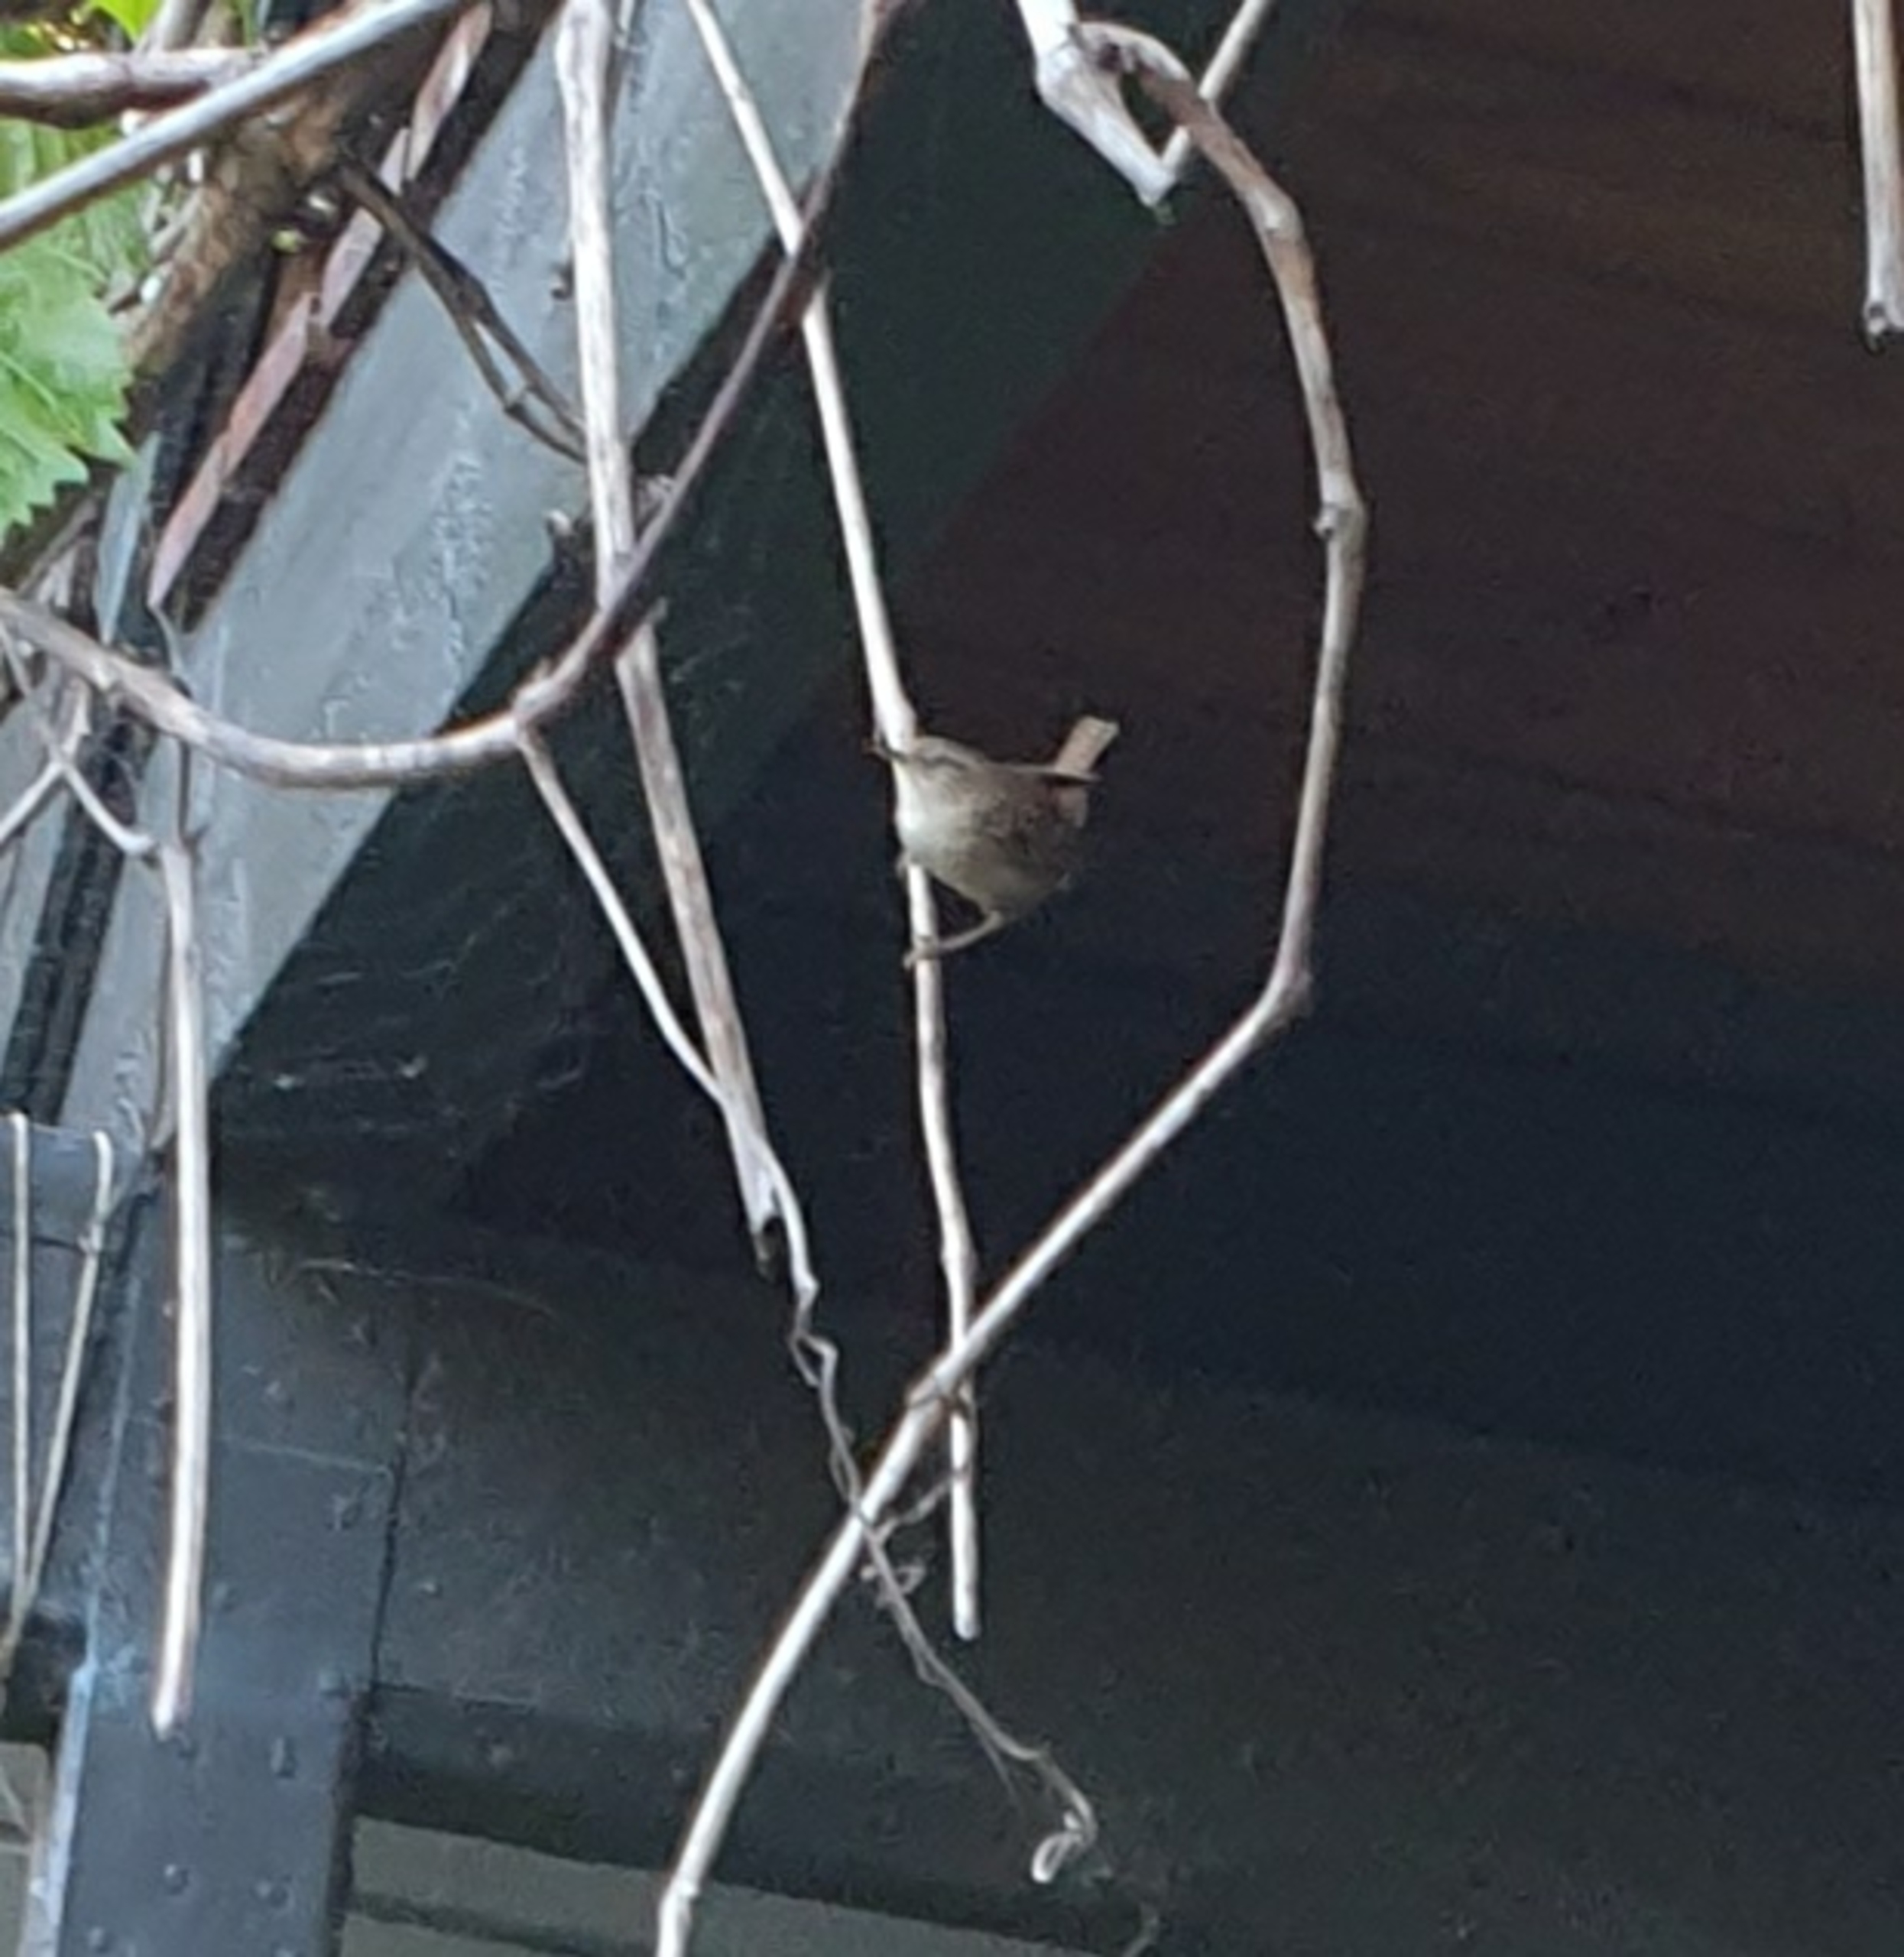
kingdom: Animalia
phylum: Chordata
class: Aves
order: Passeriformes
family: Troglodytidae
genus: Troglodytes
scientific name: Troglodytes troglodytes
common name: Gærdesmutte
